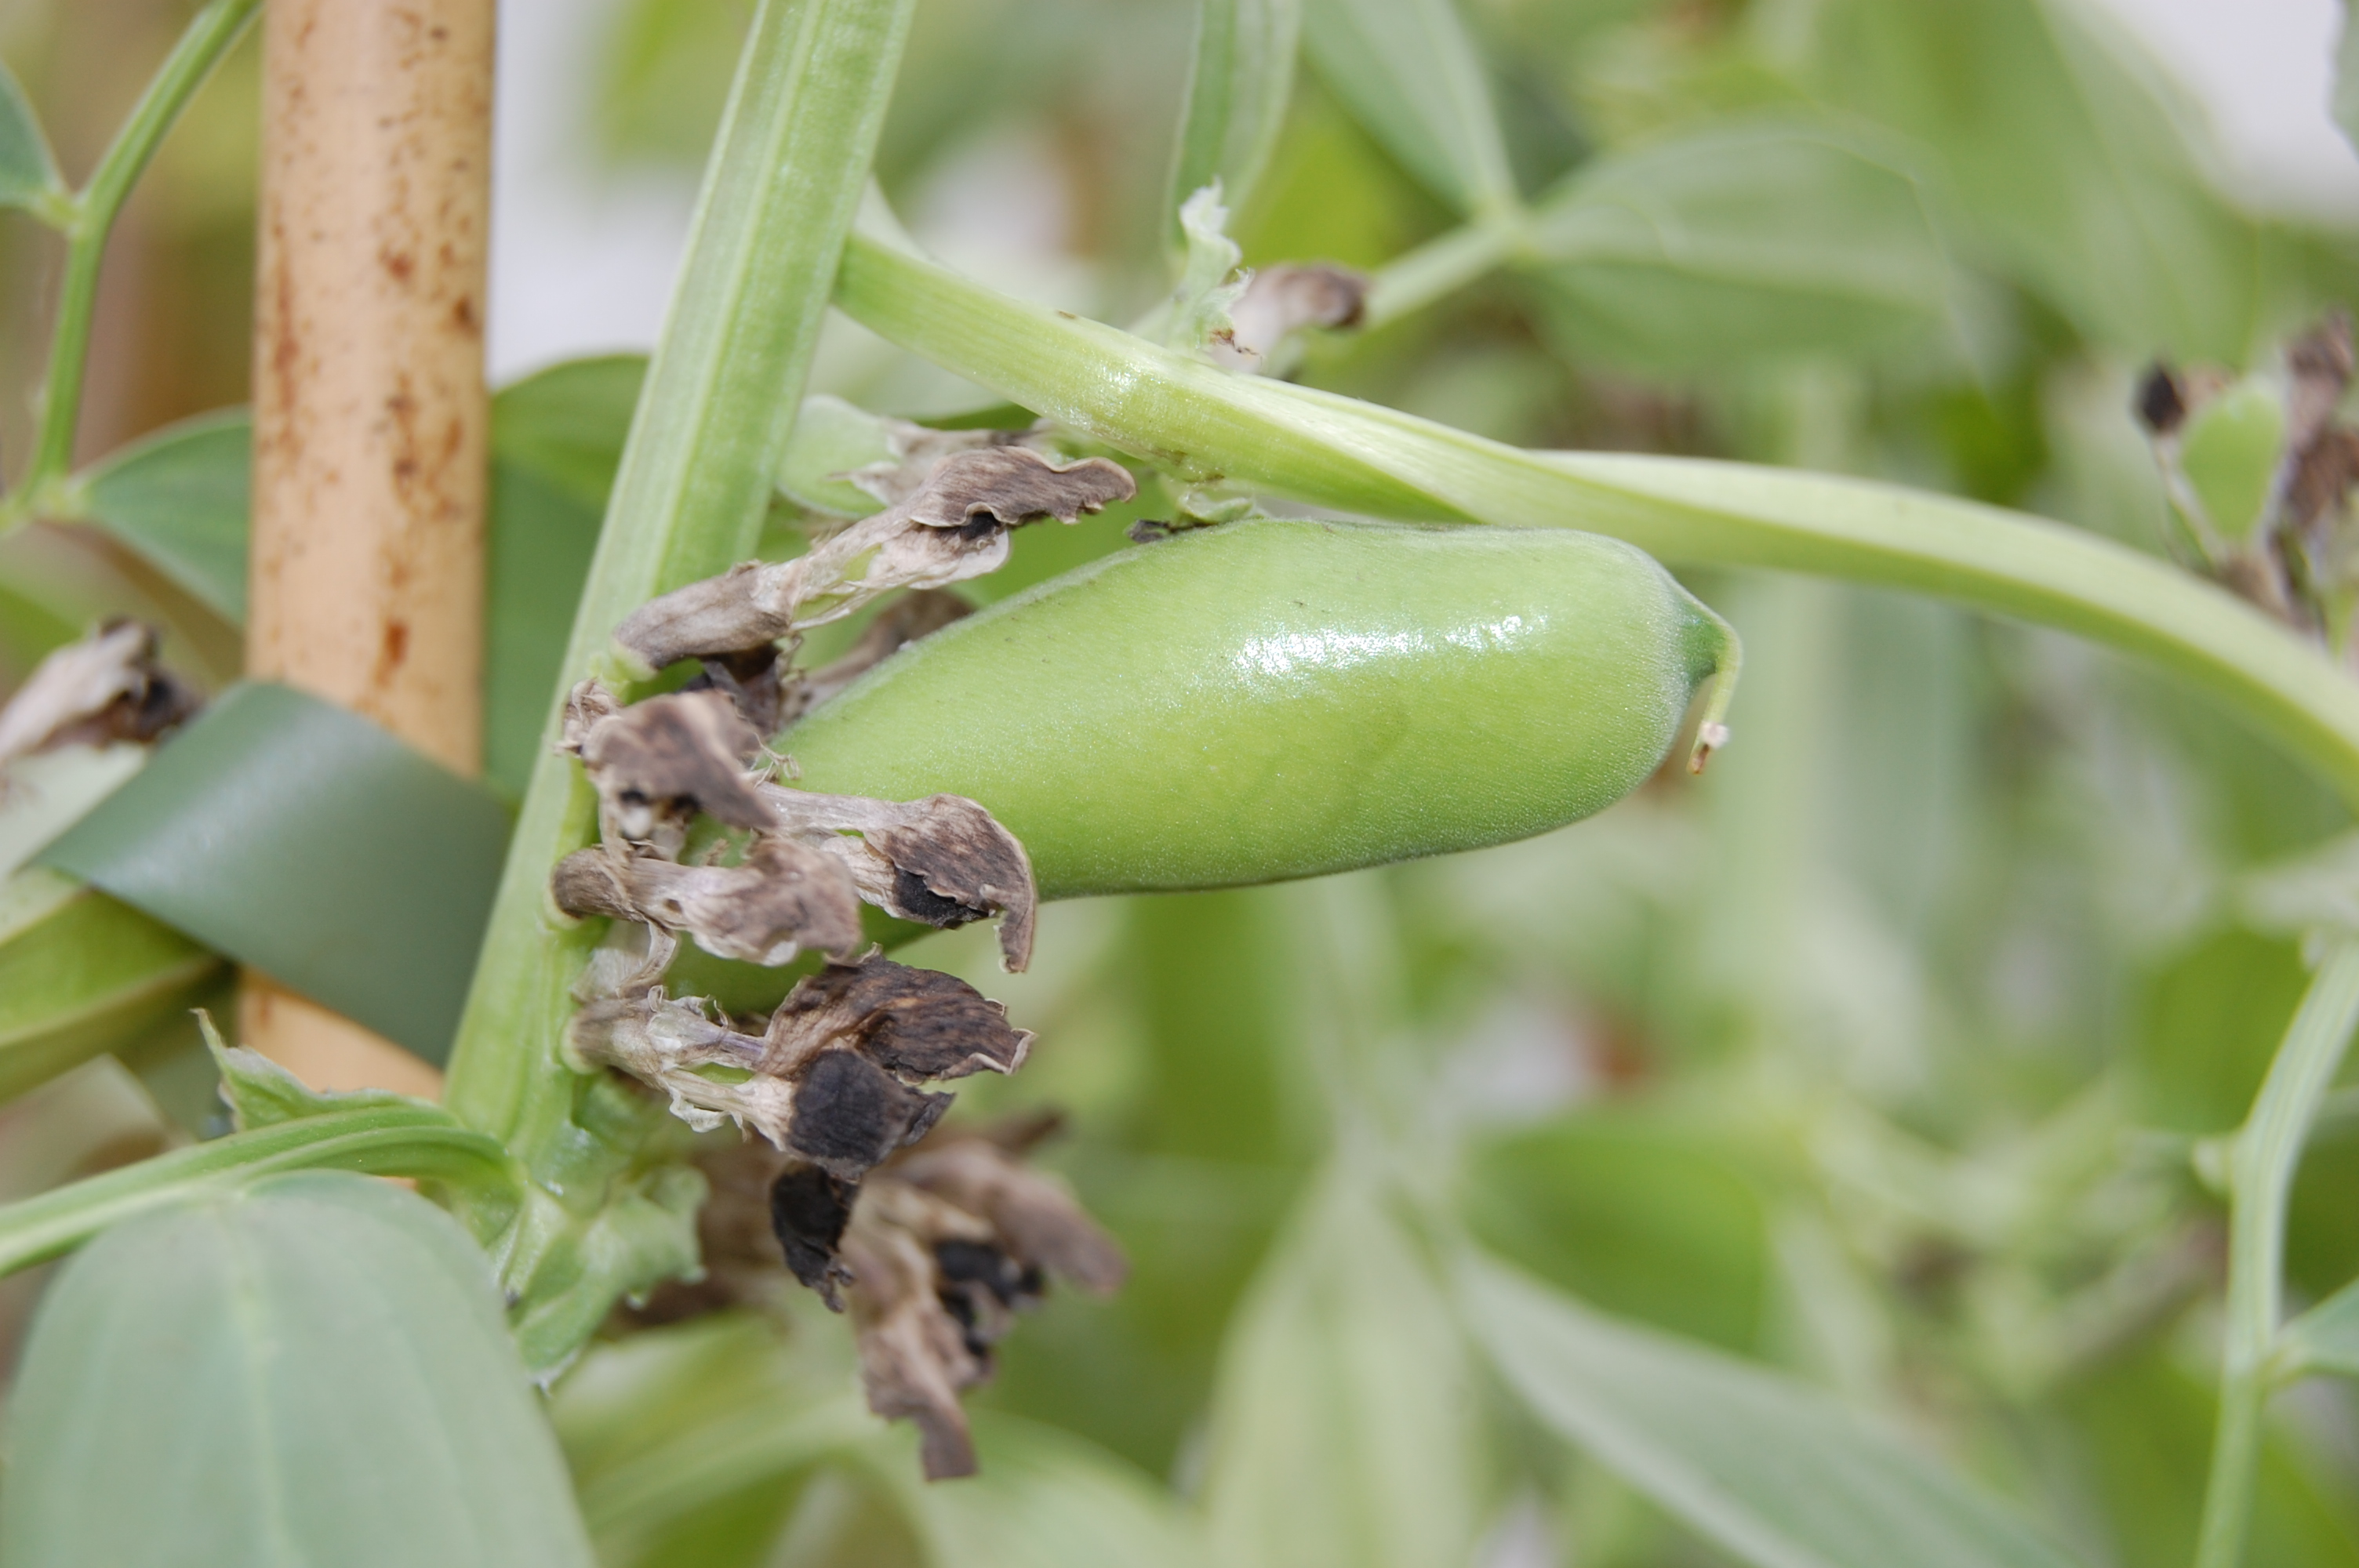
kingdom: Plantae
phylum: Tracheophyta
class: Magnoliopsida
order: Fabales
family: Fabaceae
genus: Vicia
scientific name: Vicia faba
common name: Broad bean
